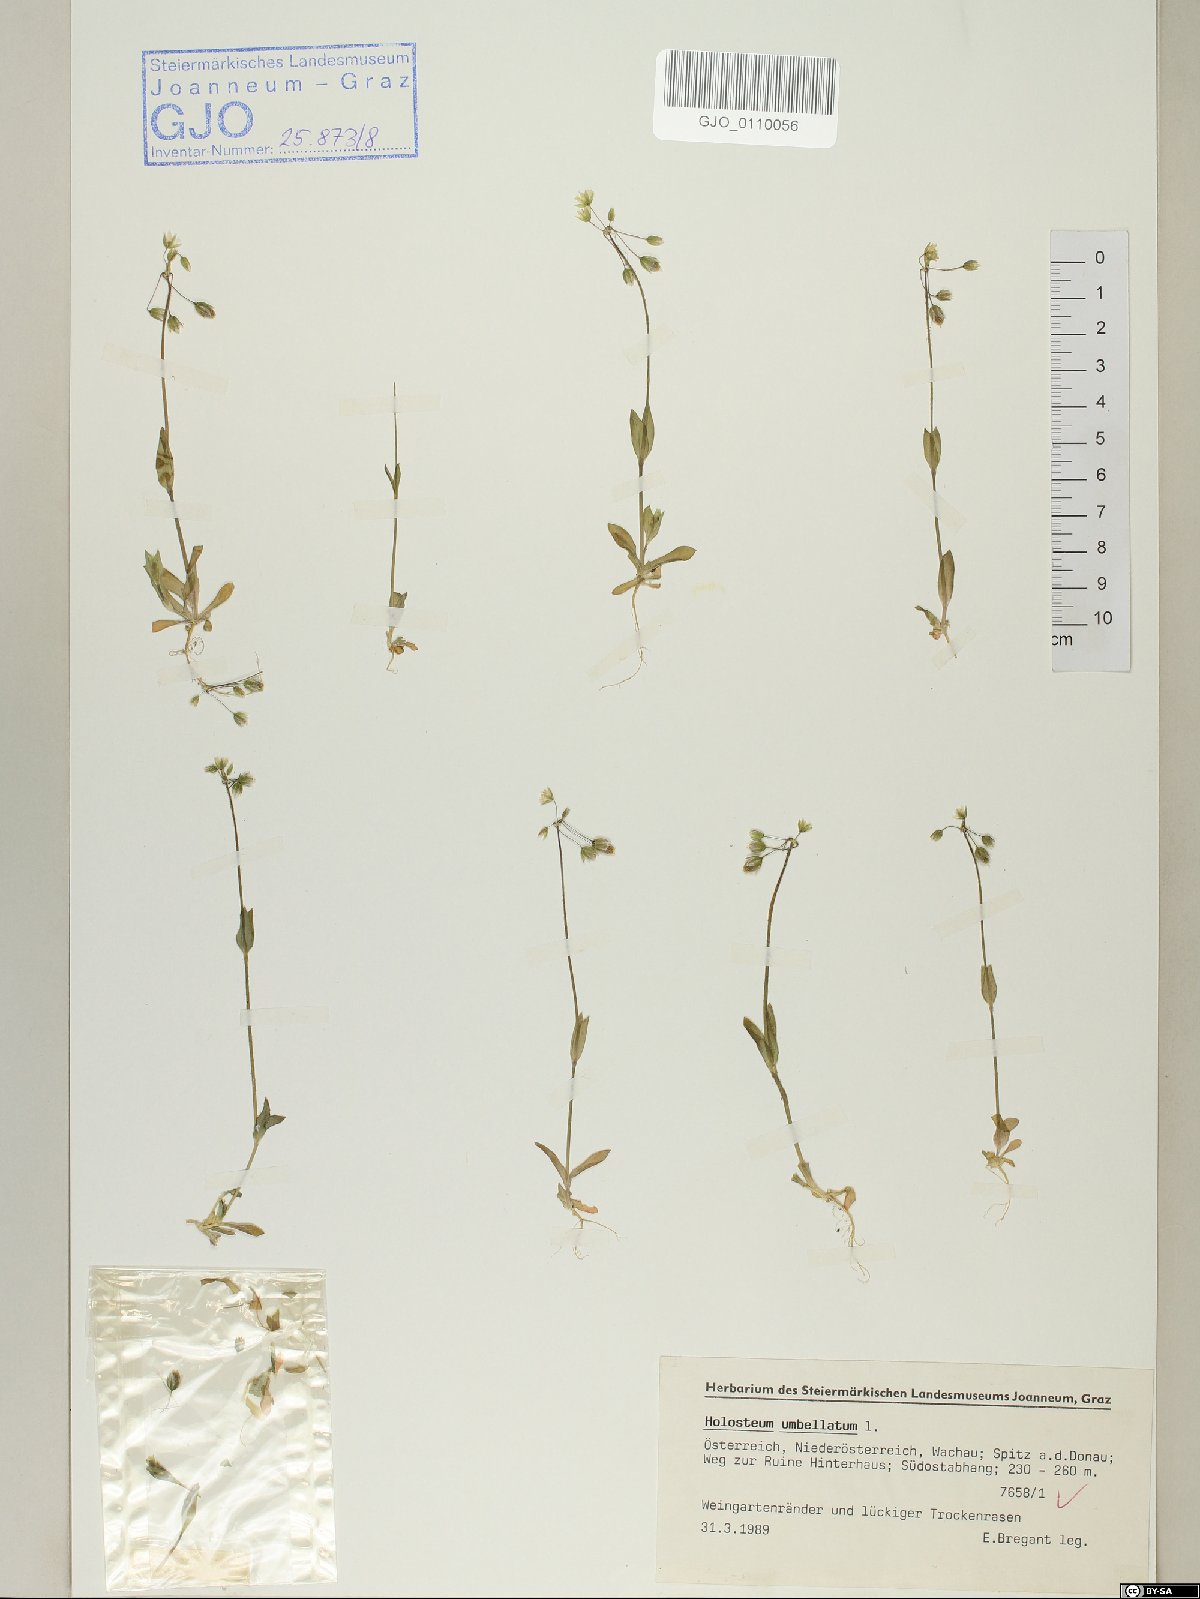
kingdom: Plantae
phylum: Tracheophyta
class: Magnoliopsida
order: Caryophyllales
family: Caryophyllaceae
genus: Holosteum
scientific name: Holosteum umbellatum
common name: Jagged chickweed
